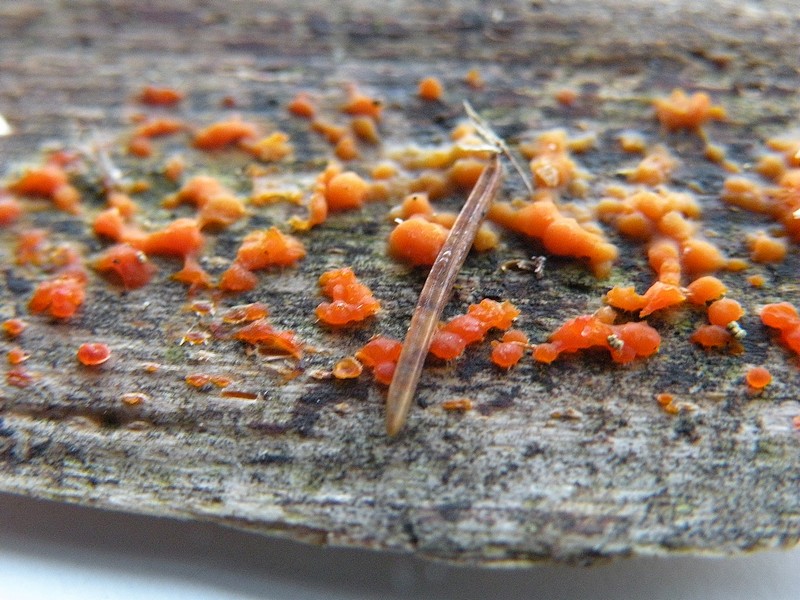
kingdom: Fungi
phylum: Basidiomycota
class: Dacrymycetes
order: Dacrymycetales
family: Dacrymycetaceae
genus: Dacrymyces
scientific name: Dacrymyces stillatus
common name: almindelig tåresvamp
